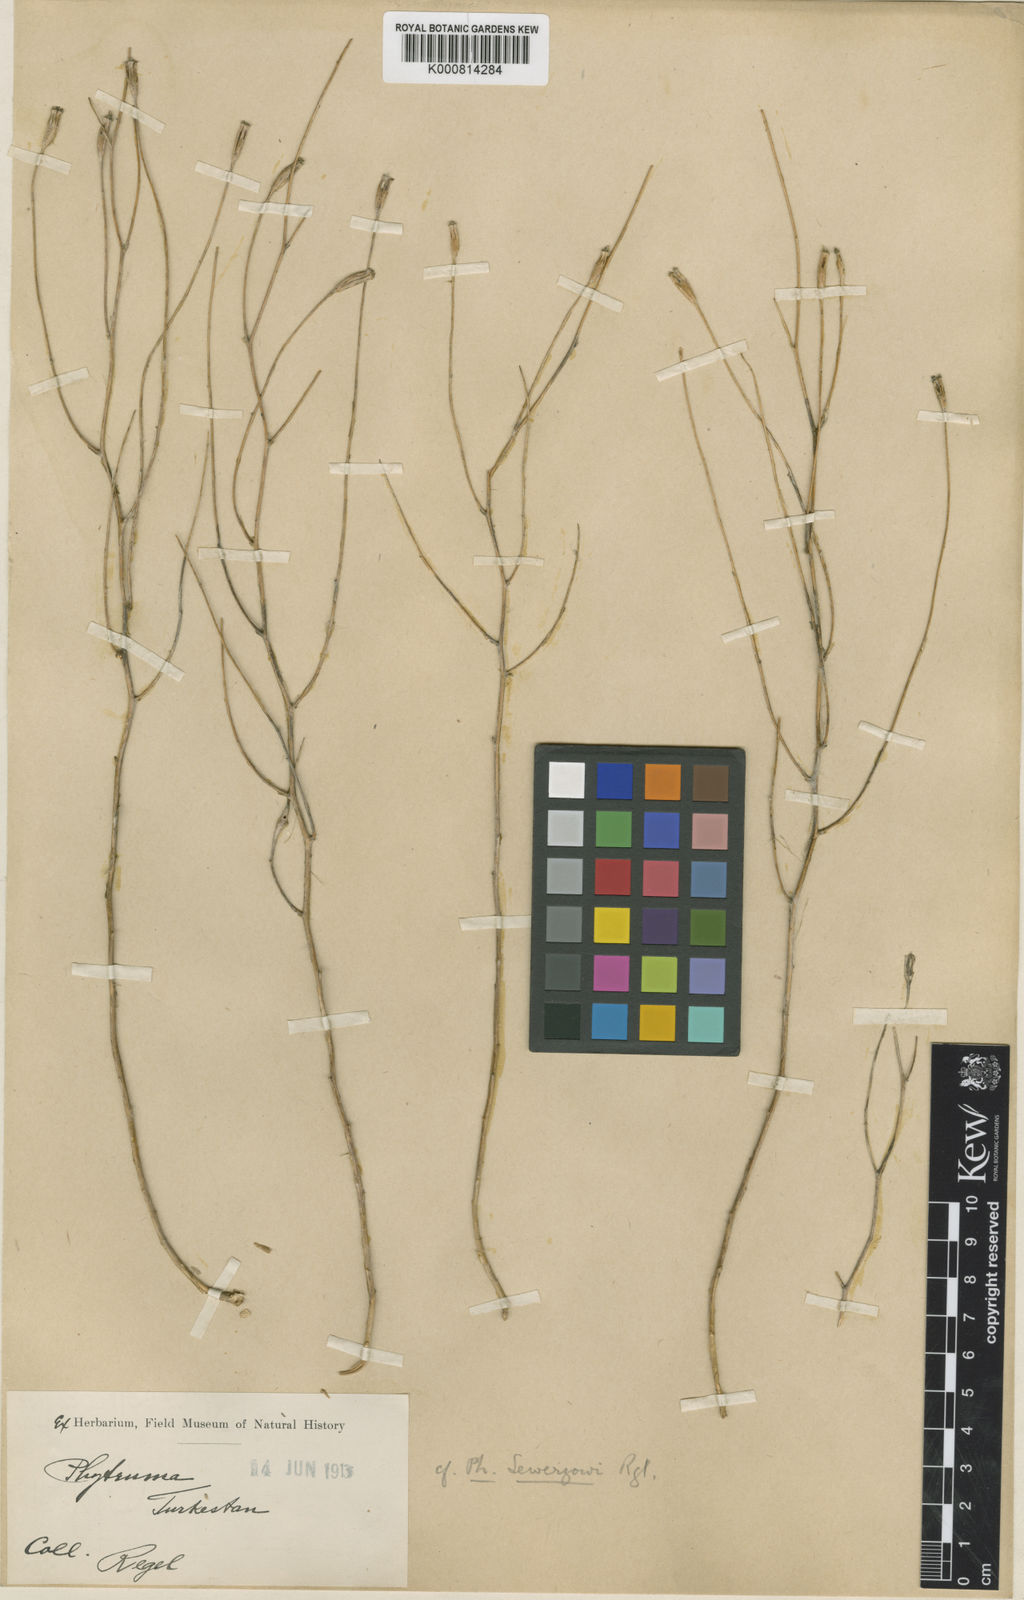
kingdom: Plantae
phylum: Tracheophyta
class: Magnoliopsida
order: Asterales
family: Campanulaceae
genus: Cylindrocarpa
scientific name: Cylindrocarpa sewerzowii
